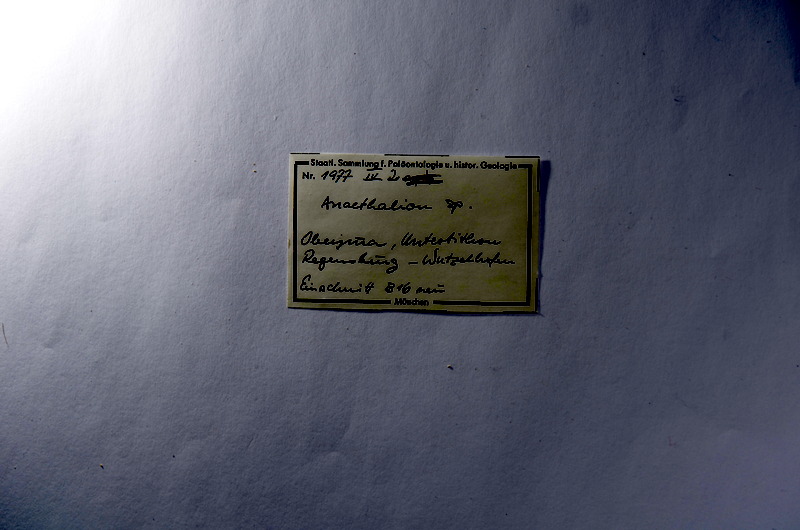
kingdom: Animalia
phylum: Chordata
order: Elopiformes
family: Anaethalionidae
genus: Anaethalion
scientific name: Anaethalion
